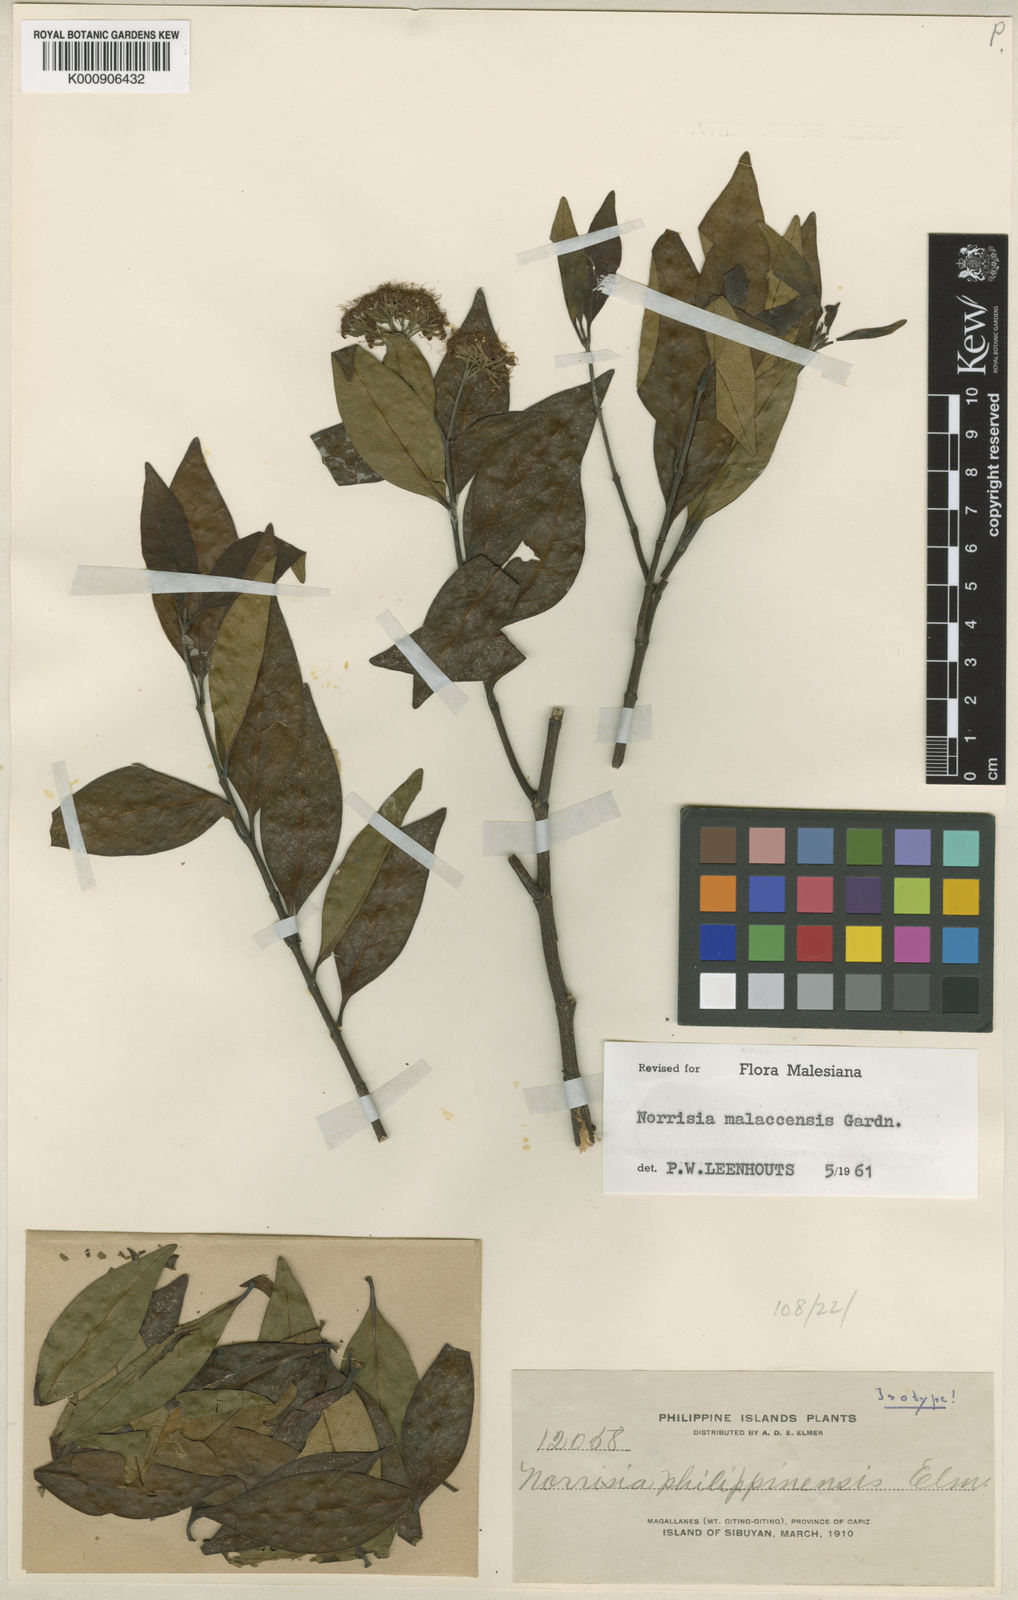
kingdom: Plantae
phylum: Tracheophyta
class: Magnoliopsida
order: Gentianales
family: Loganiaceae
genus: Norrisia
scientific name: Norrisia malaccensis
